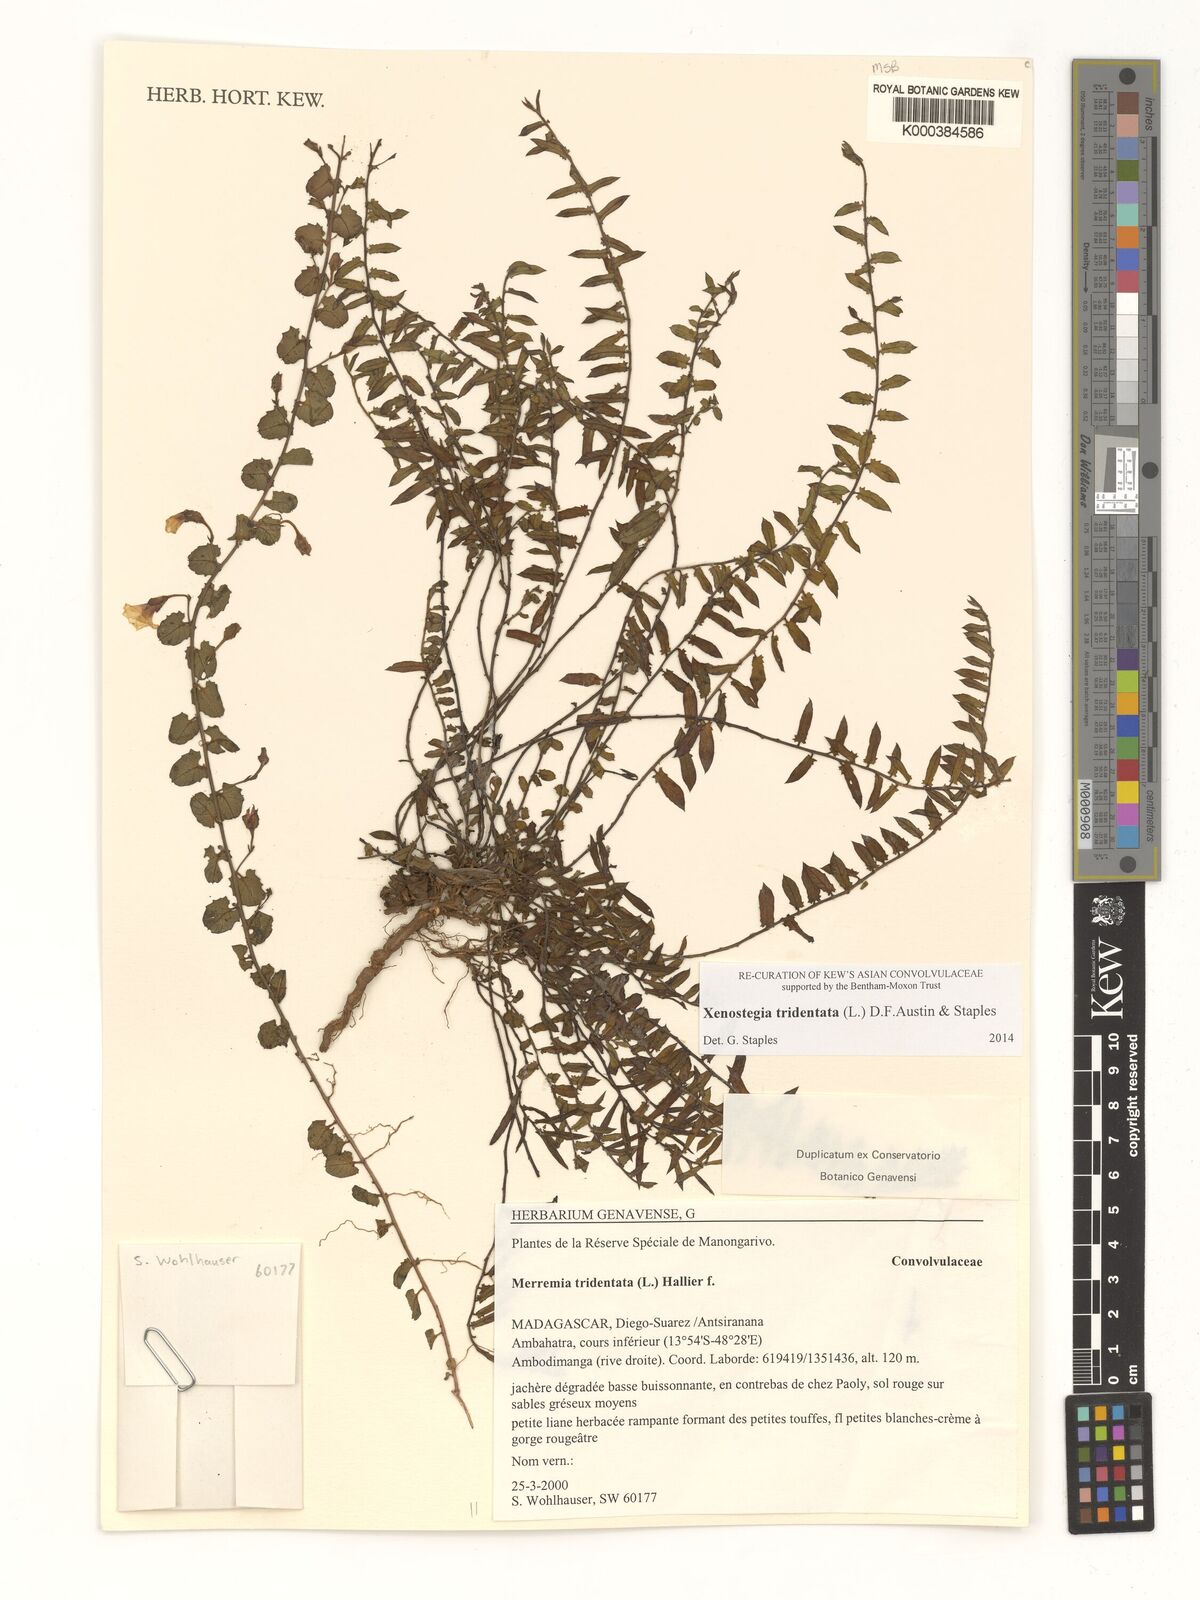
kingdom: Plantae
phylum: Tracheophyta
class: Magnoliopsida
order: Solanales
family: Convolvulaceae
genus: Xenostegia
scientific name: Xenostegia tridentata
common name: African morningvine
